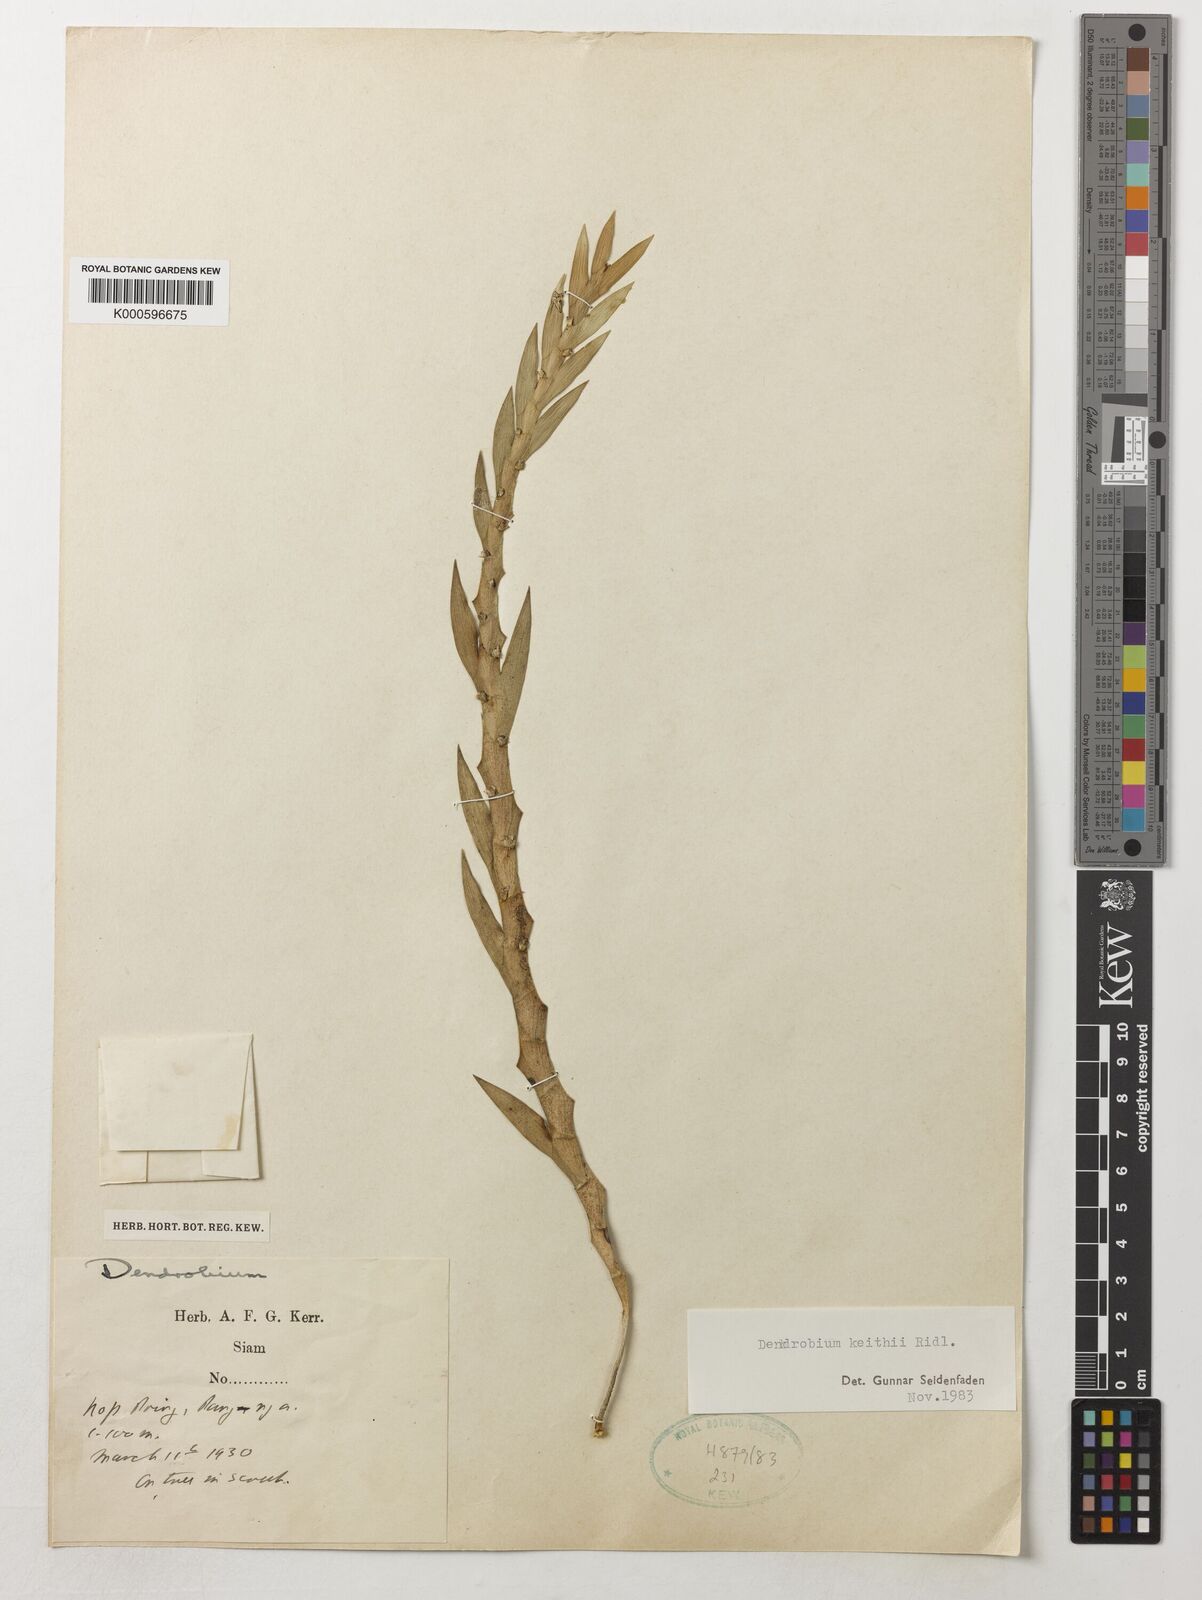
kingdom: Plantae
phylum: Tracheophyta
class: Liliopsida
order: Asparagales
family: Orchidaceae
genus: Dendrobium
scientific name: Dendrobium keithii
